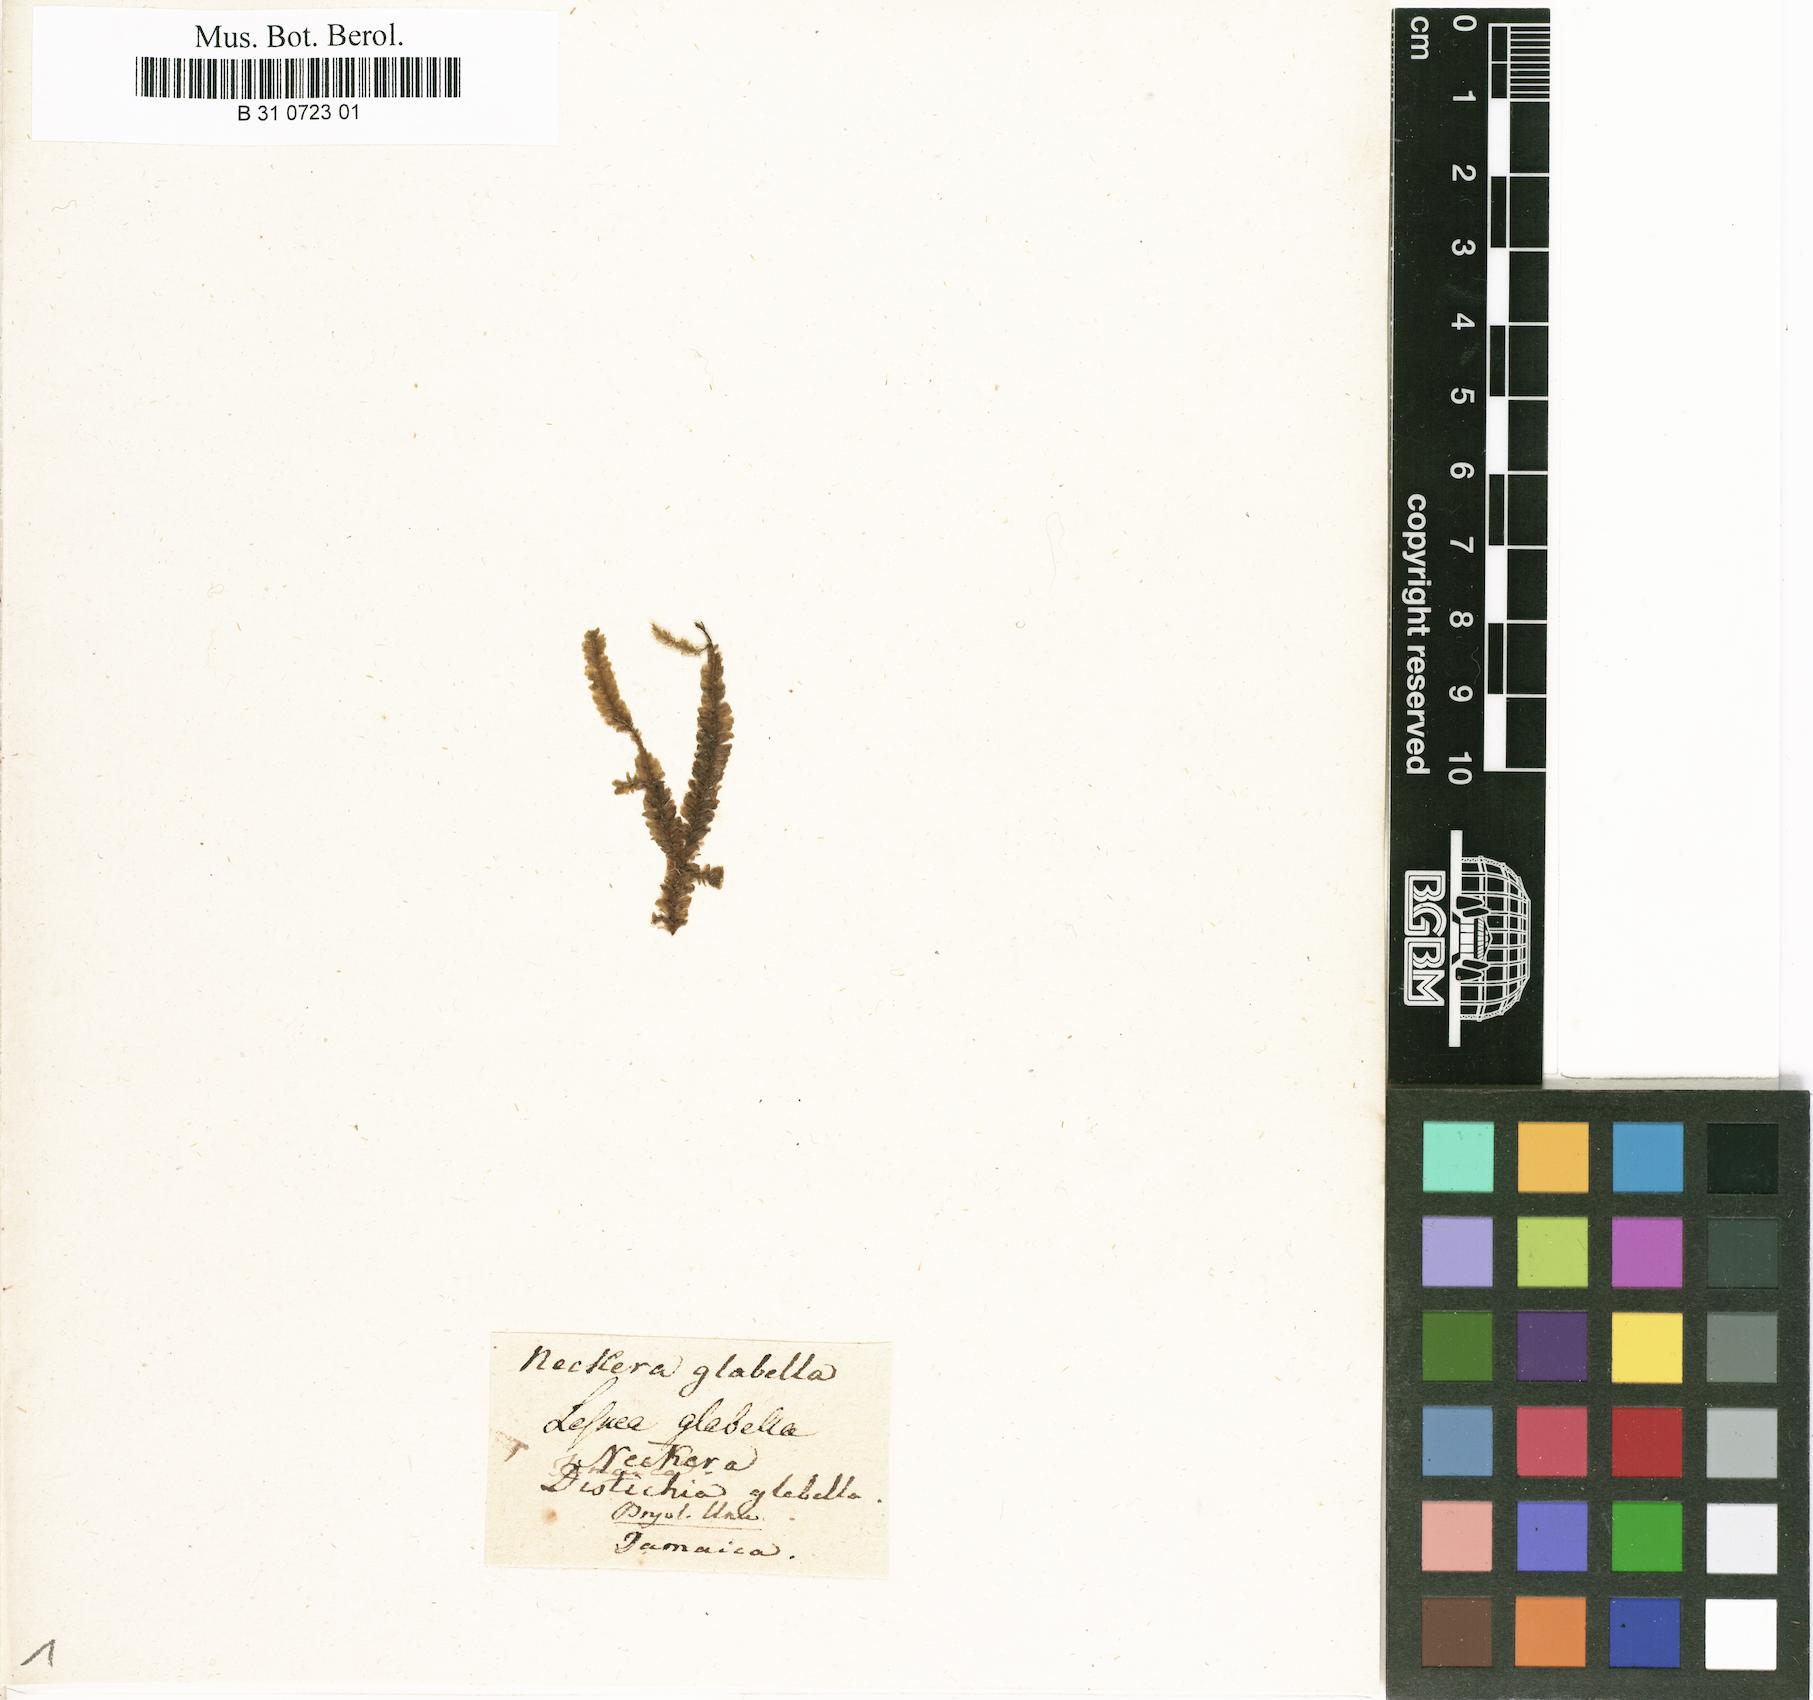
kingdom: Plantae
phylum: Bryophyta
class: Bryopsida
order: Hypnales
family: Neckeraceae
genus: Thamnomalia
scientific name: Thamnomalia glabella
